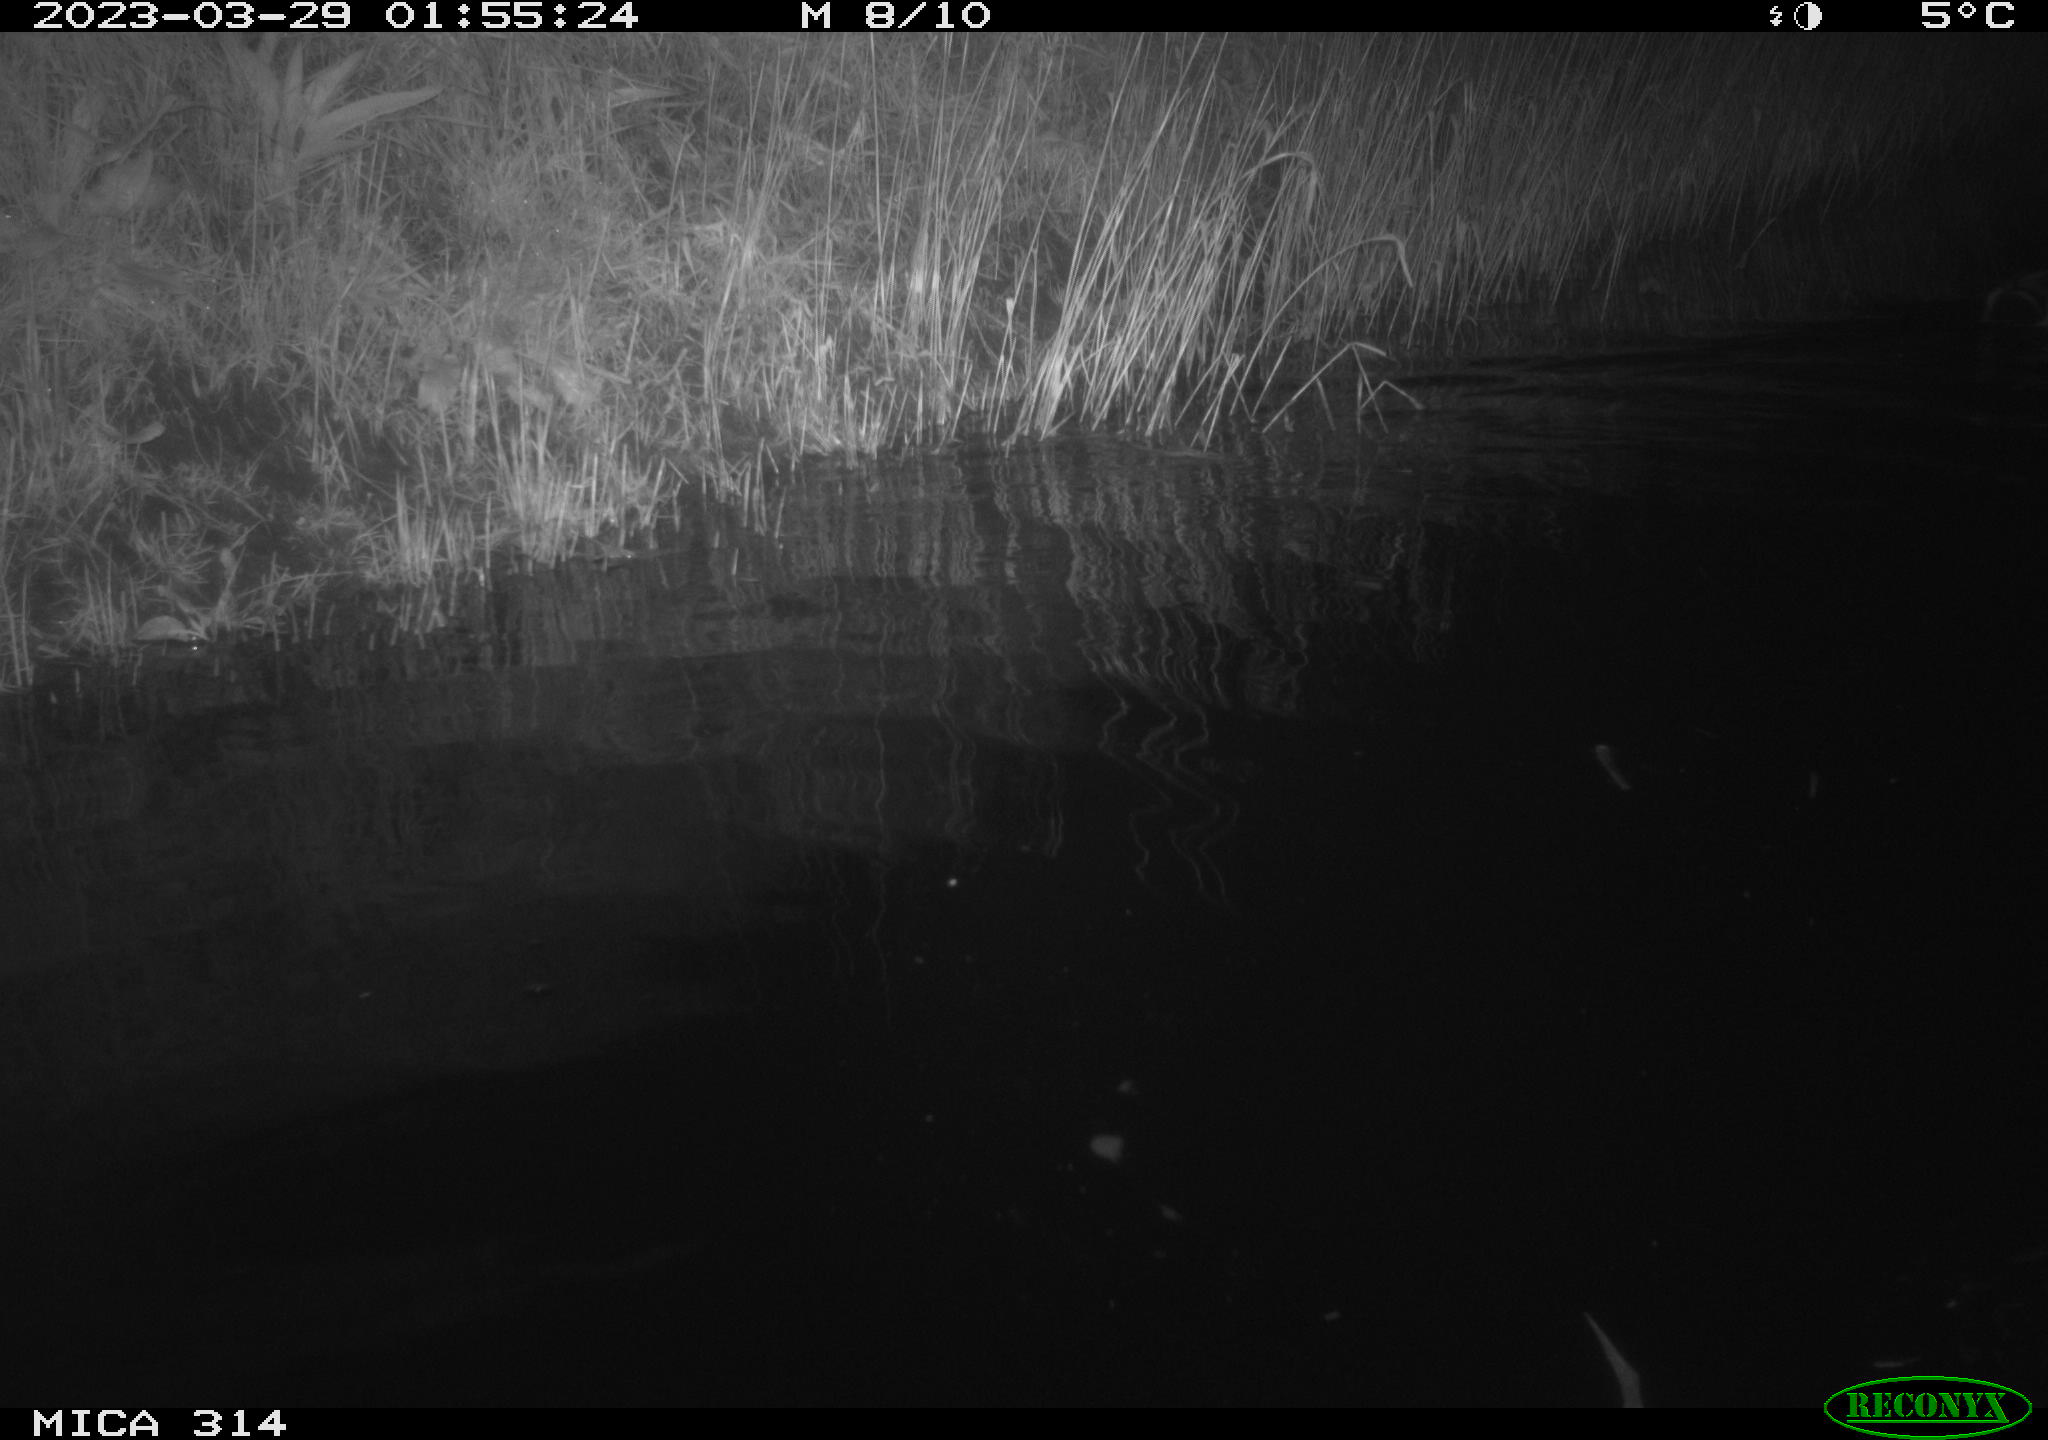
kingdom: Animalia
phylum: Chordata
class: Aves
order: Anseriformes
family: Anatidae
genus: Anas
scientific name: Anas
